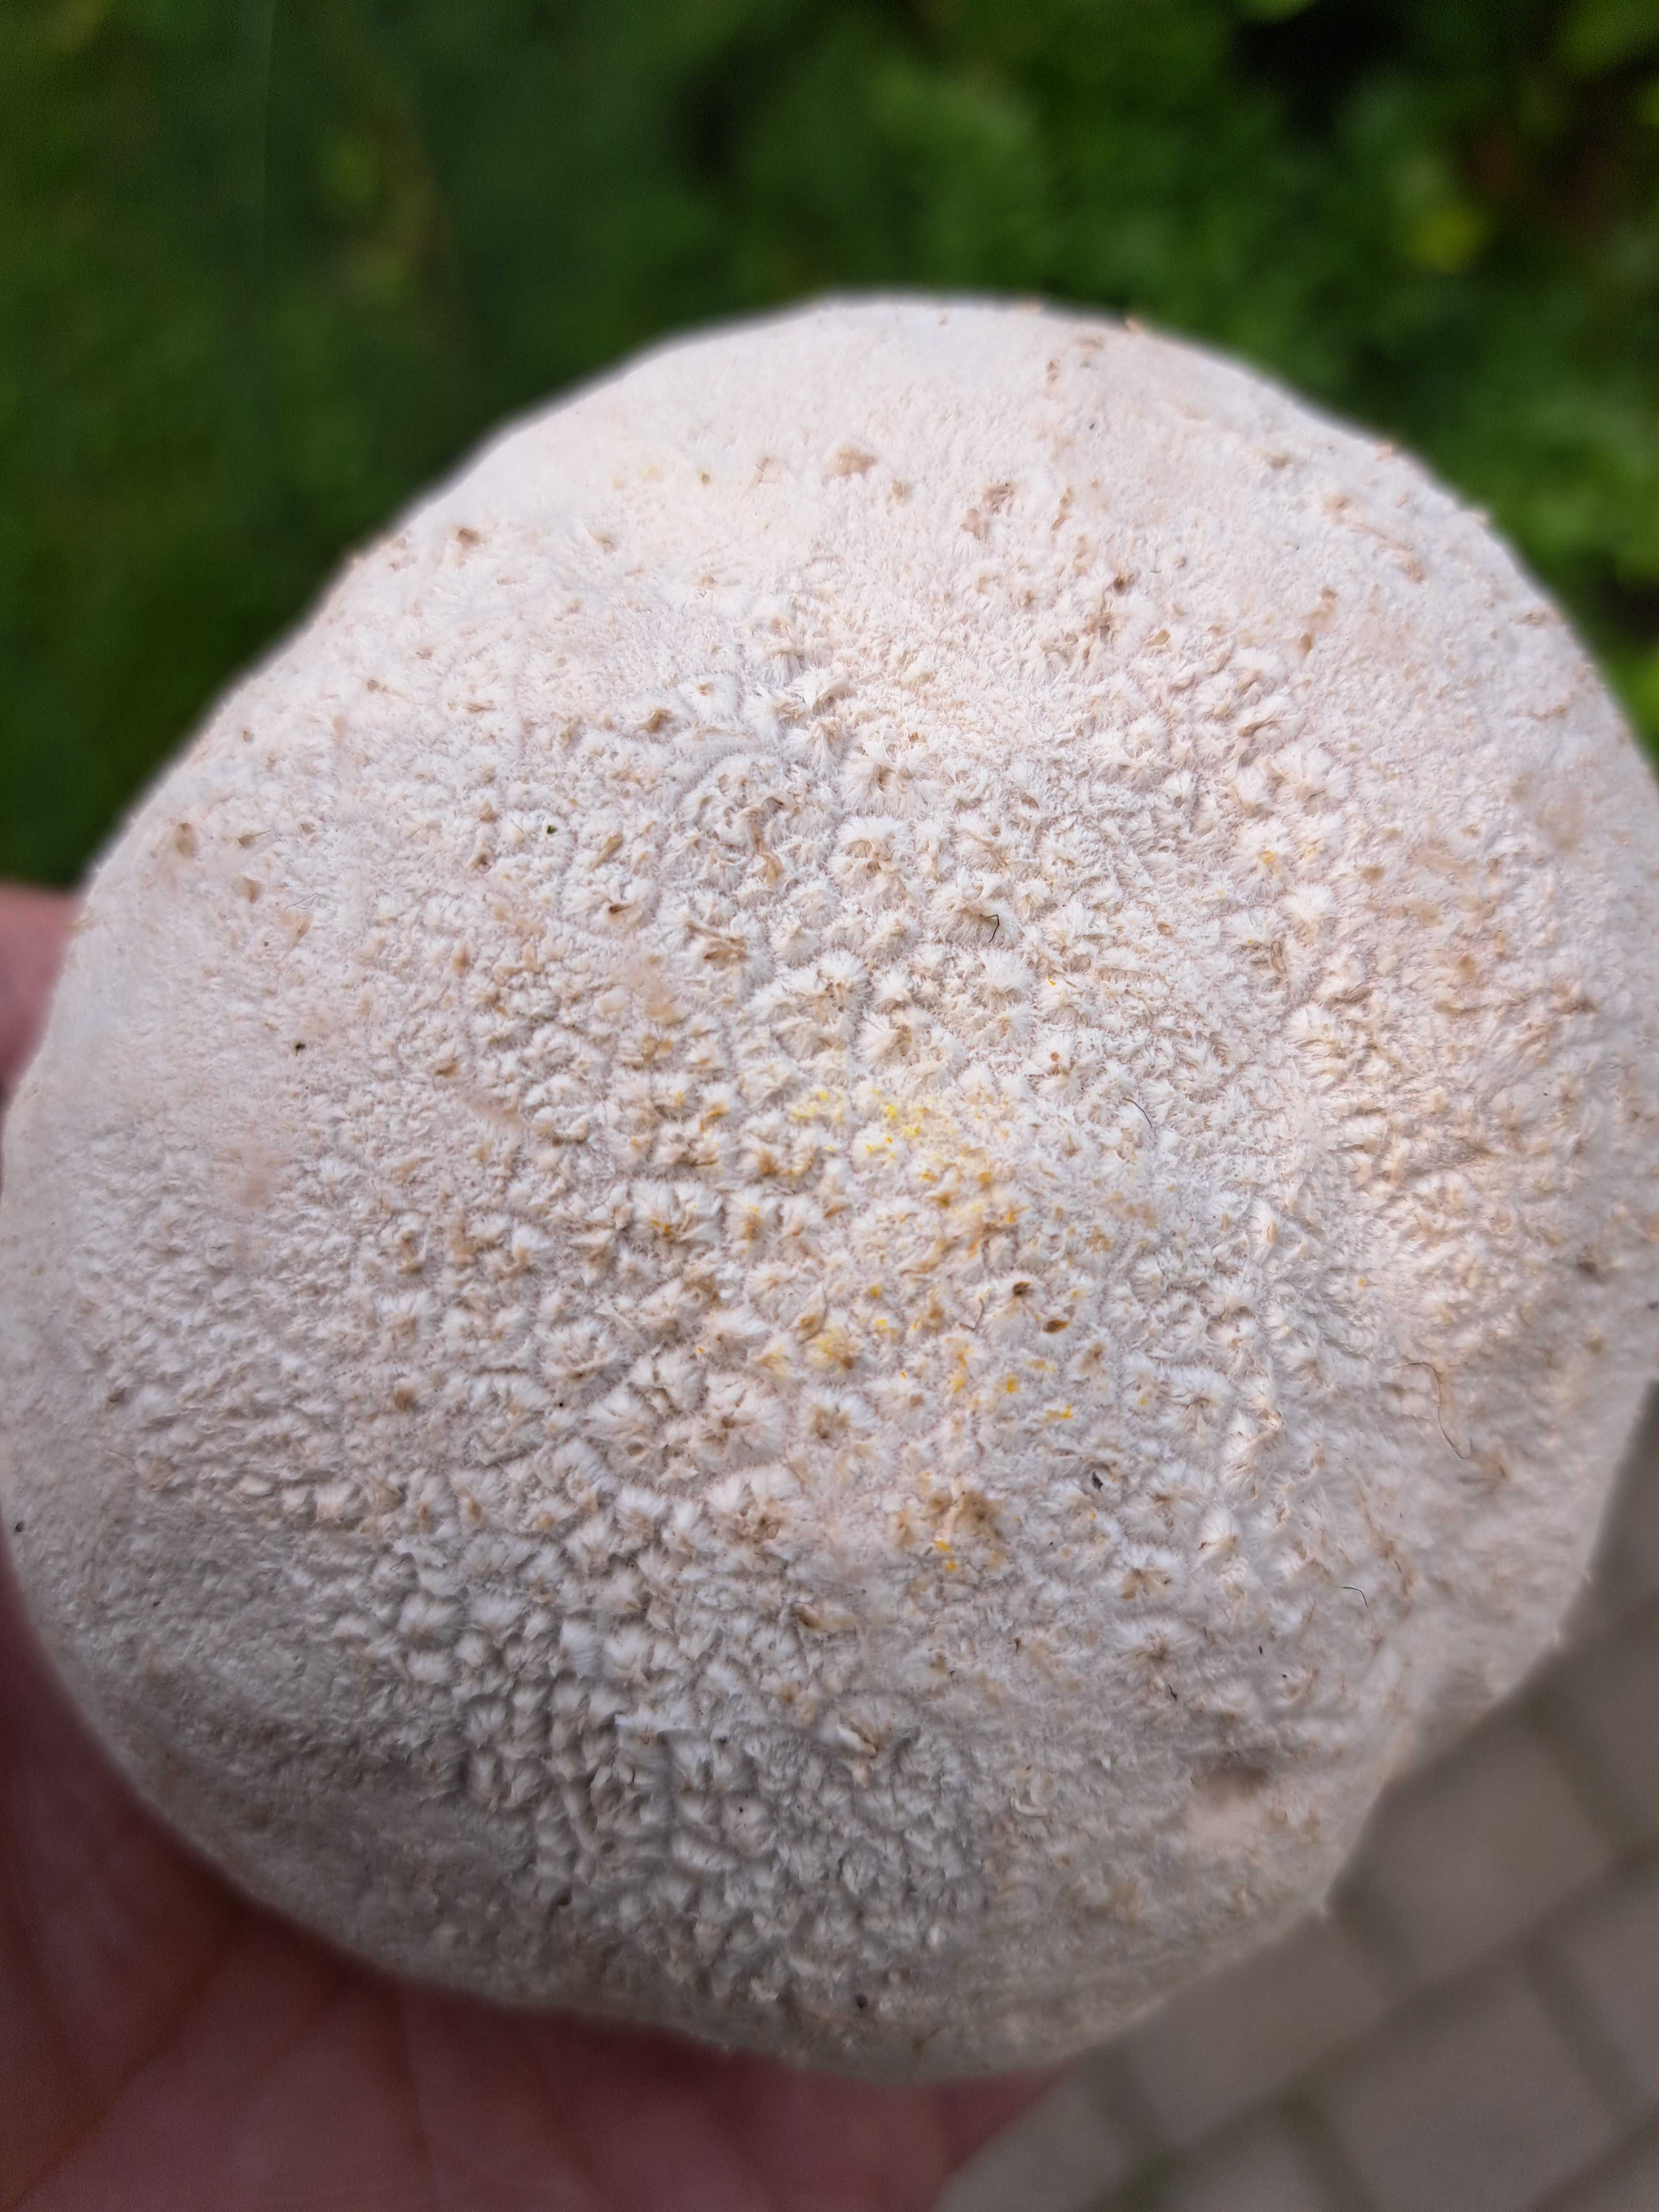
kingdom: Fungi
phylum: Basidiomycota
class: Agaricomycetes
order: Agaricales
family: Lycoperdaceae
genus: Bovistella
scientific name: Bovistella utriformis
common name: skællet støvbold
